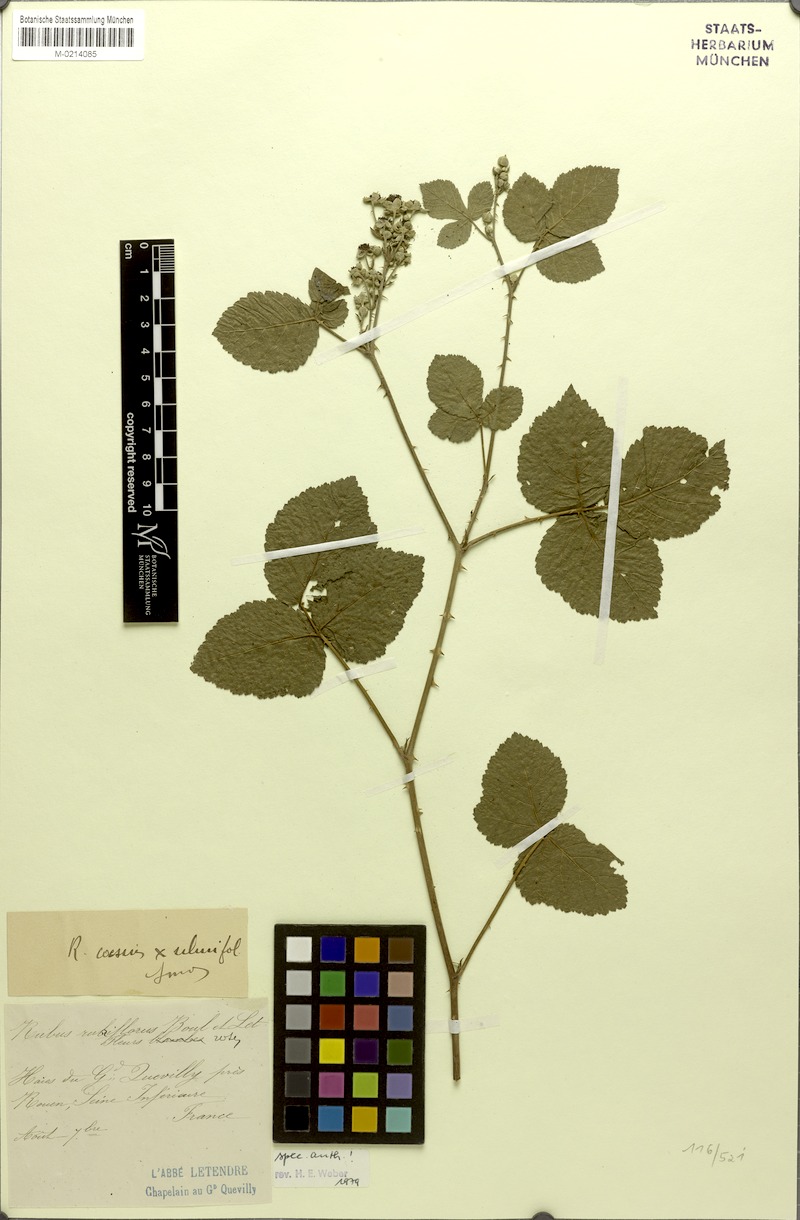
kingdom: Plantae
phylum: Tracheophyta
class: Magnoliopsida
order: Rosales
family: Rosaceae
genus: Rubus
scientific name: Rubus rubriflorus
